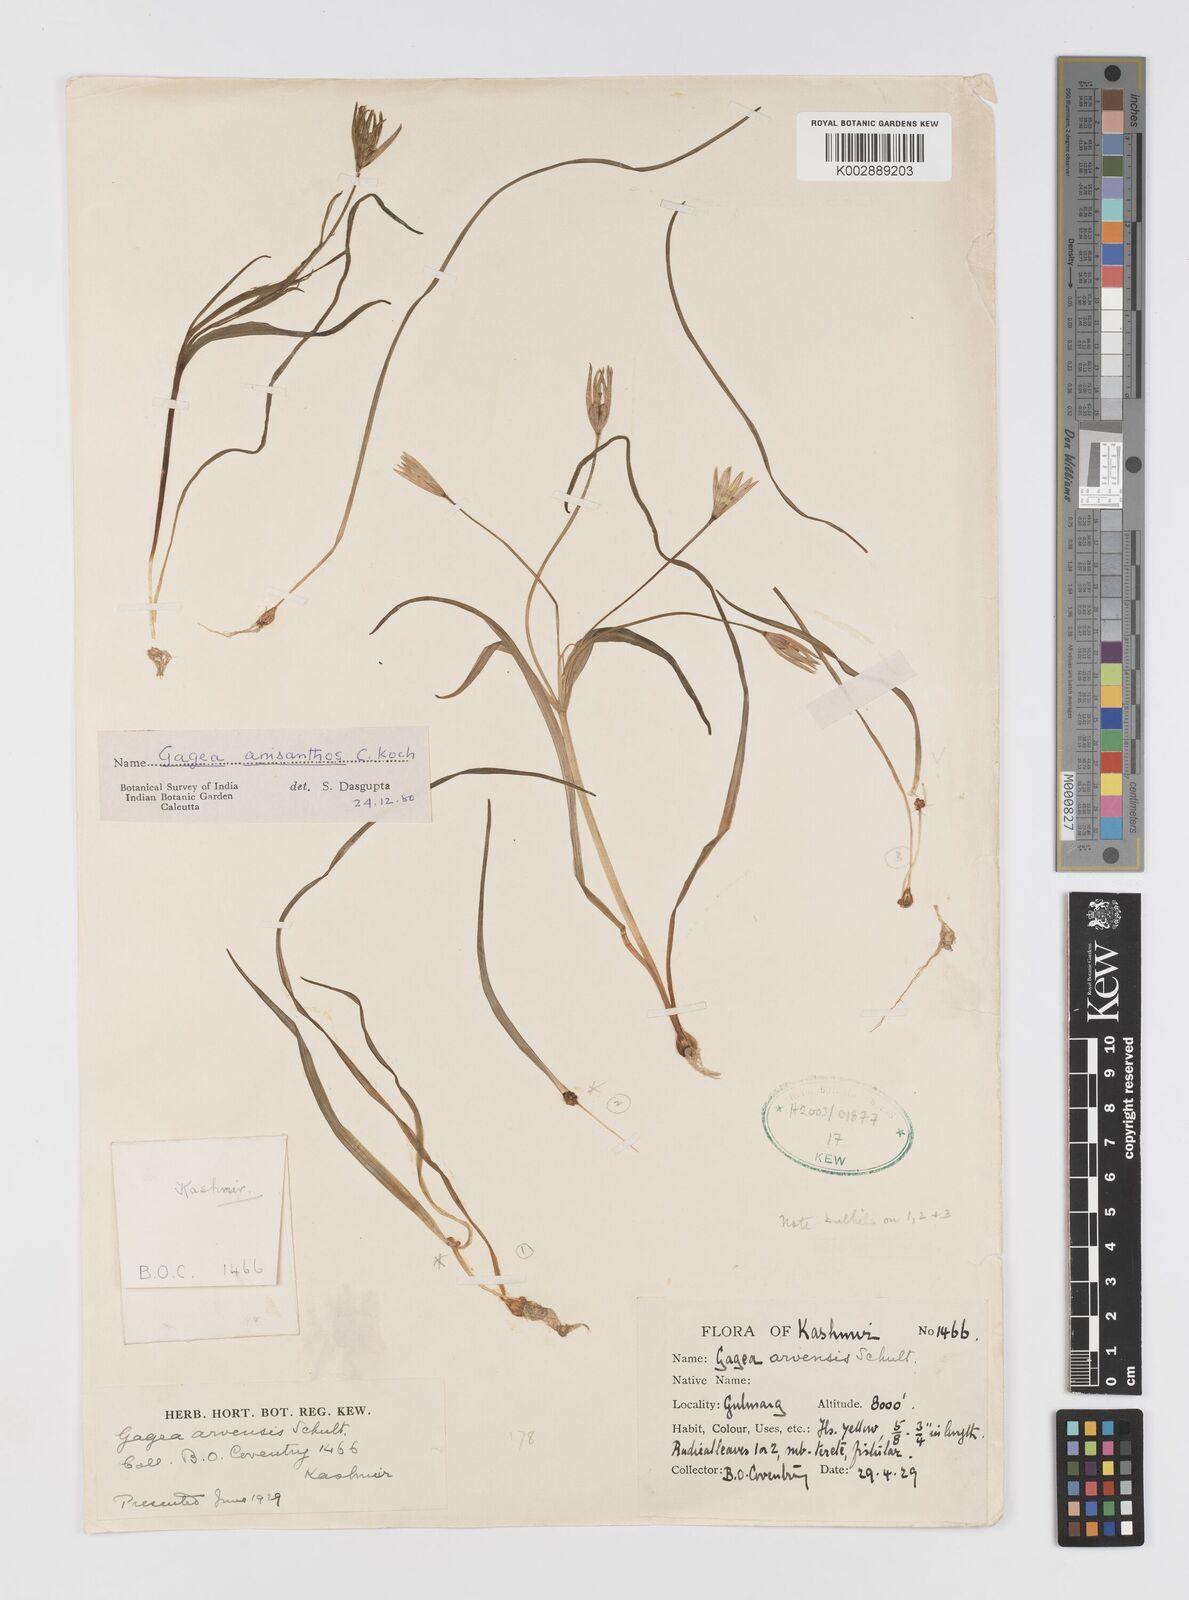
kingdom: Plantae
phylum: Tracheophyta
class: Liliopsida
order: Liliales
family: Liliaceae
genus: Gagea
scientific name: Gagea fragifera
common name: Lily
